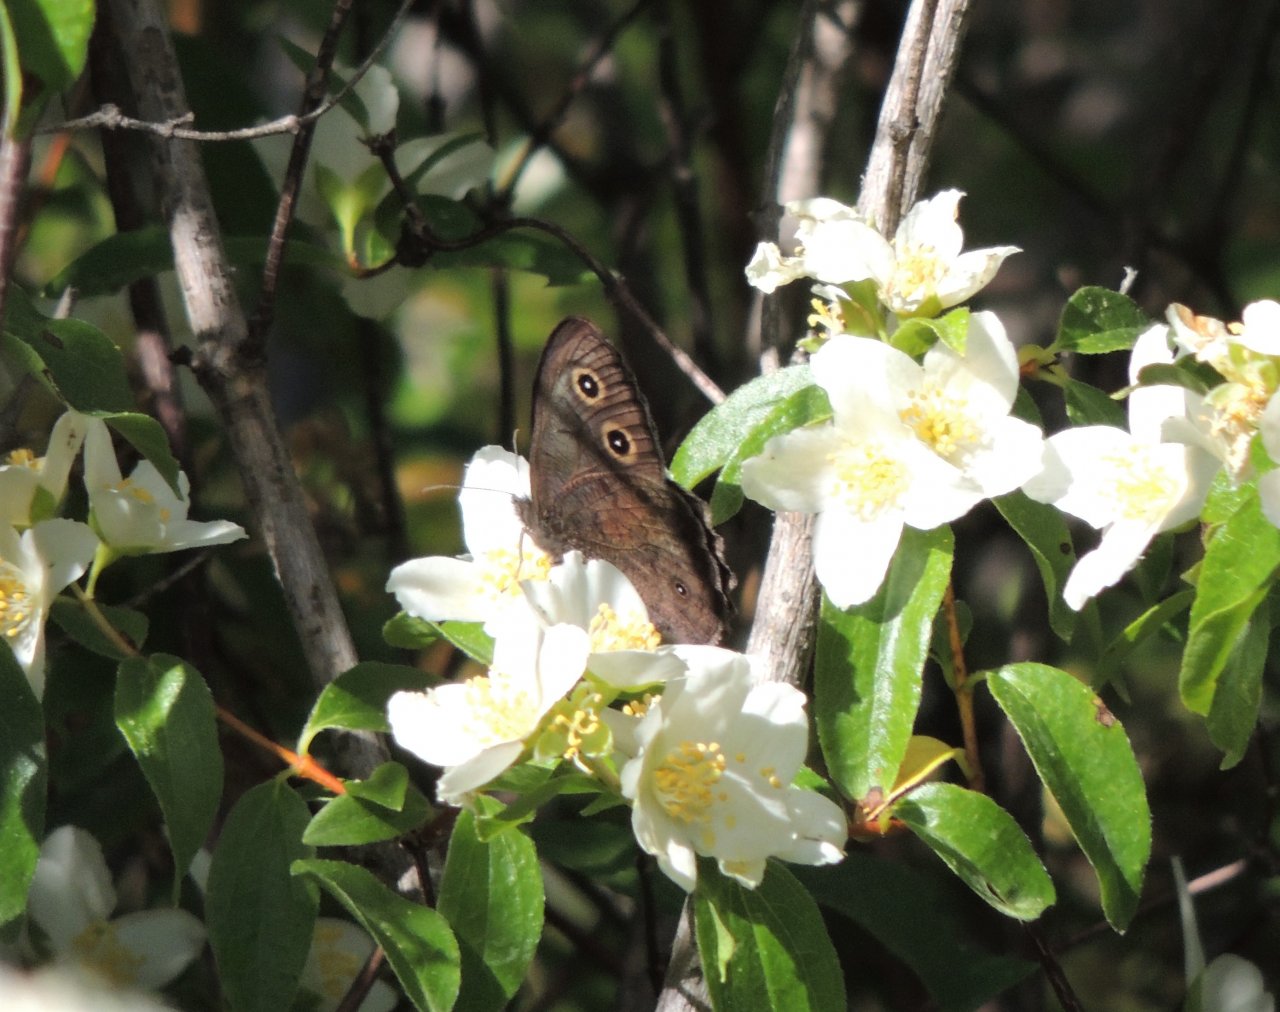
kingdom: Animalia
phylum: Arthropoda
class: Insecta
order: Lepidoptera
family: Nymphalidae
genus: Cercyonis
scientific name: Cercyonis pegala
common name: Common Wood-Nymph
